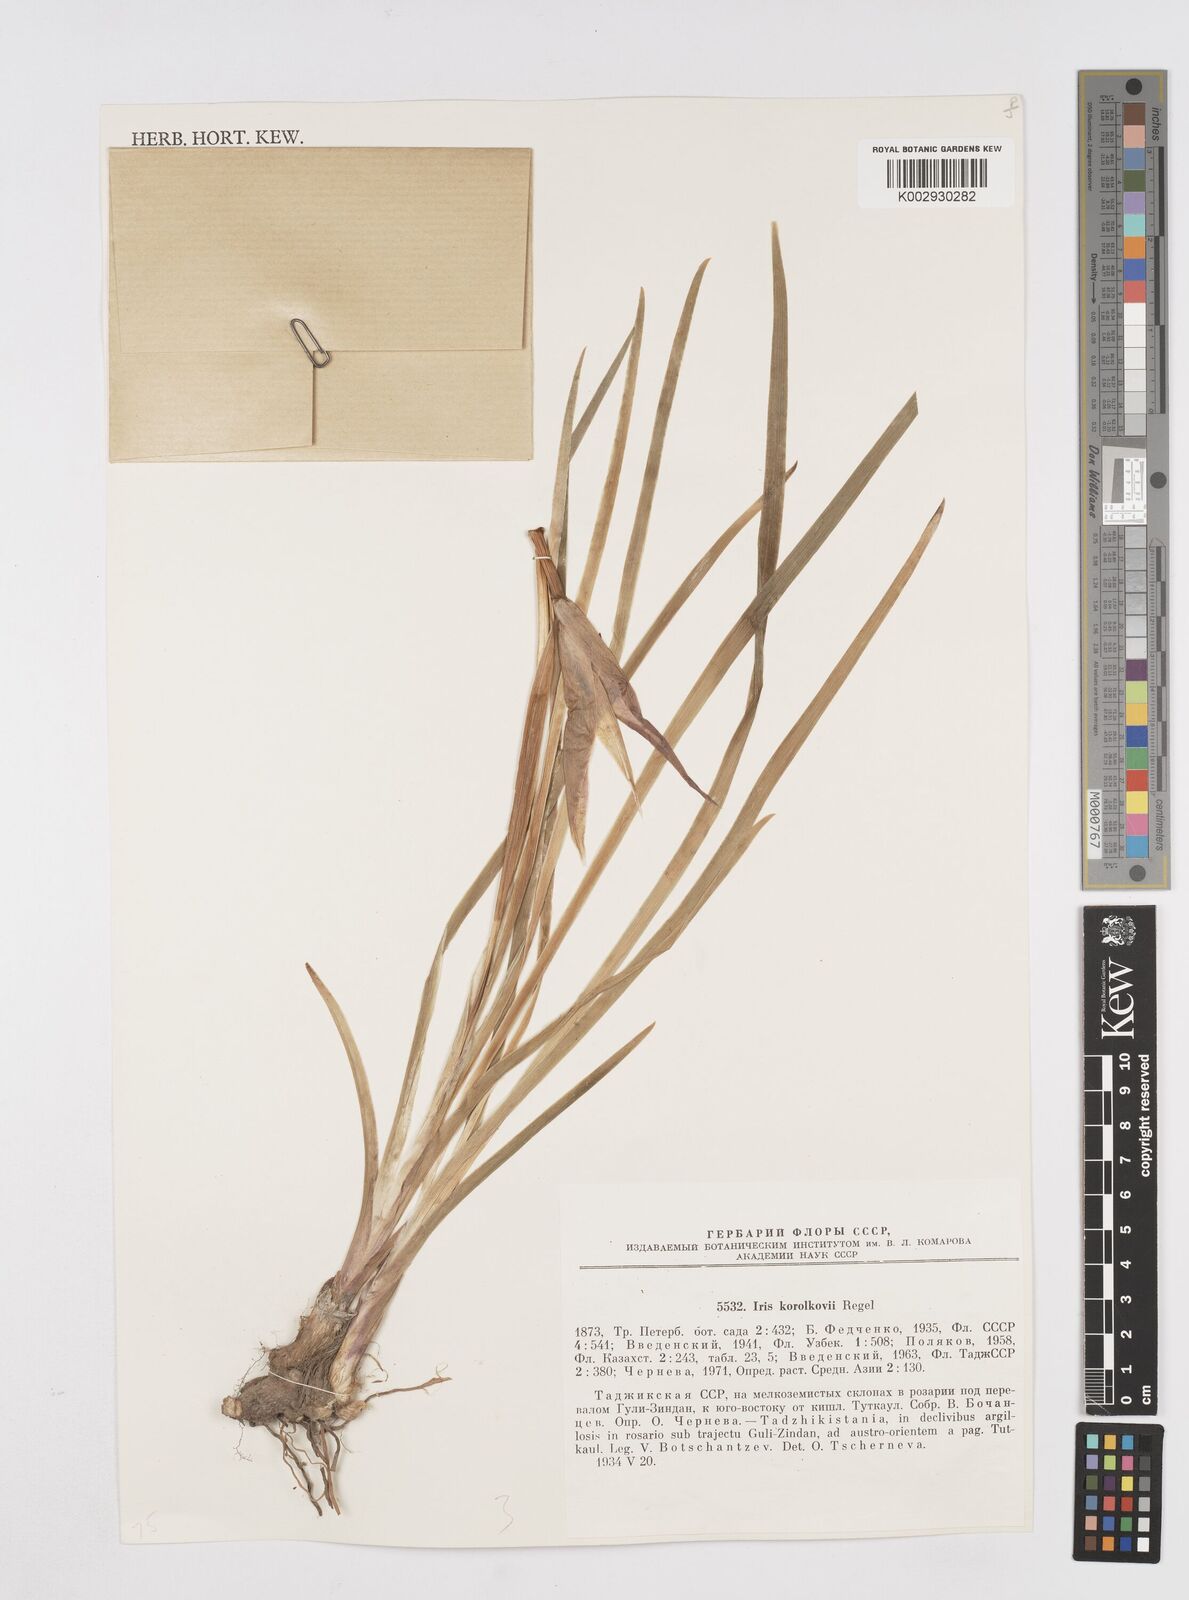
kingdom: Plantae
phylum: Tracheophyta
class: Liliopsida
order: Asparagales
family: Iridaceae
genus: Iris
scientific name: Iris korolkowii
